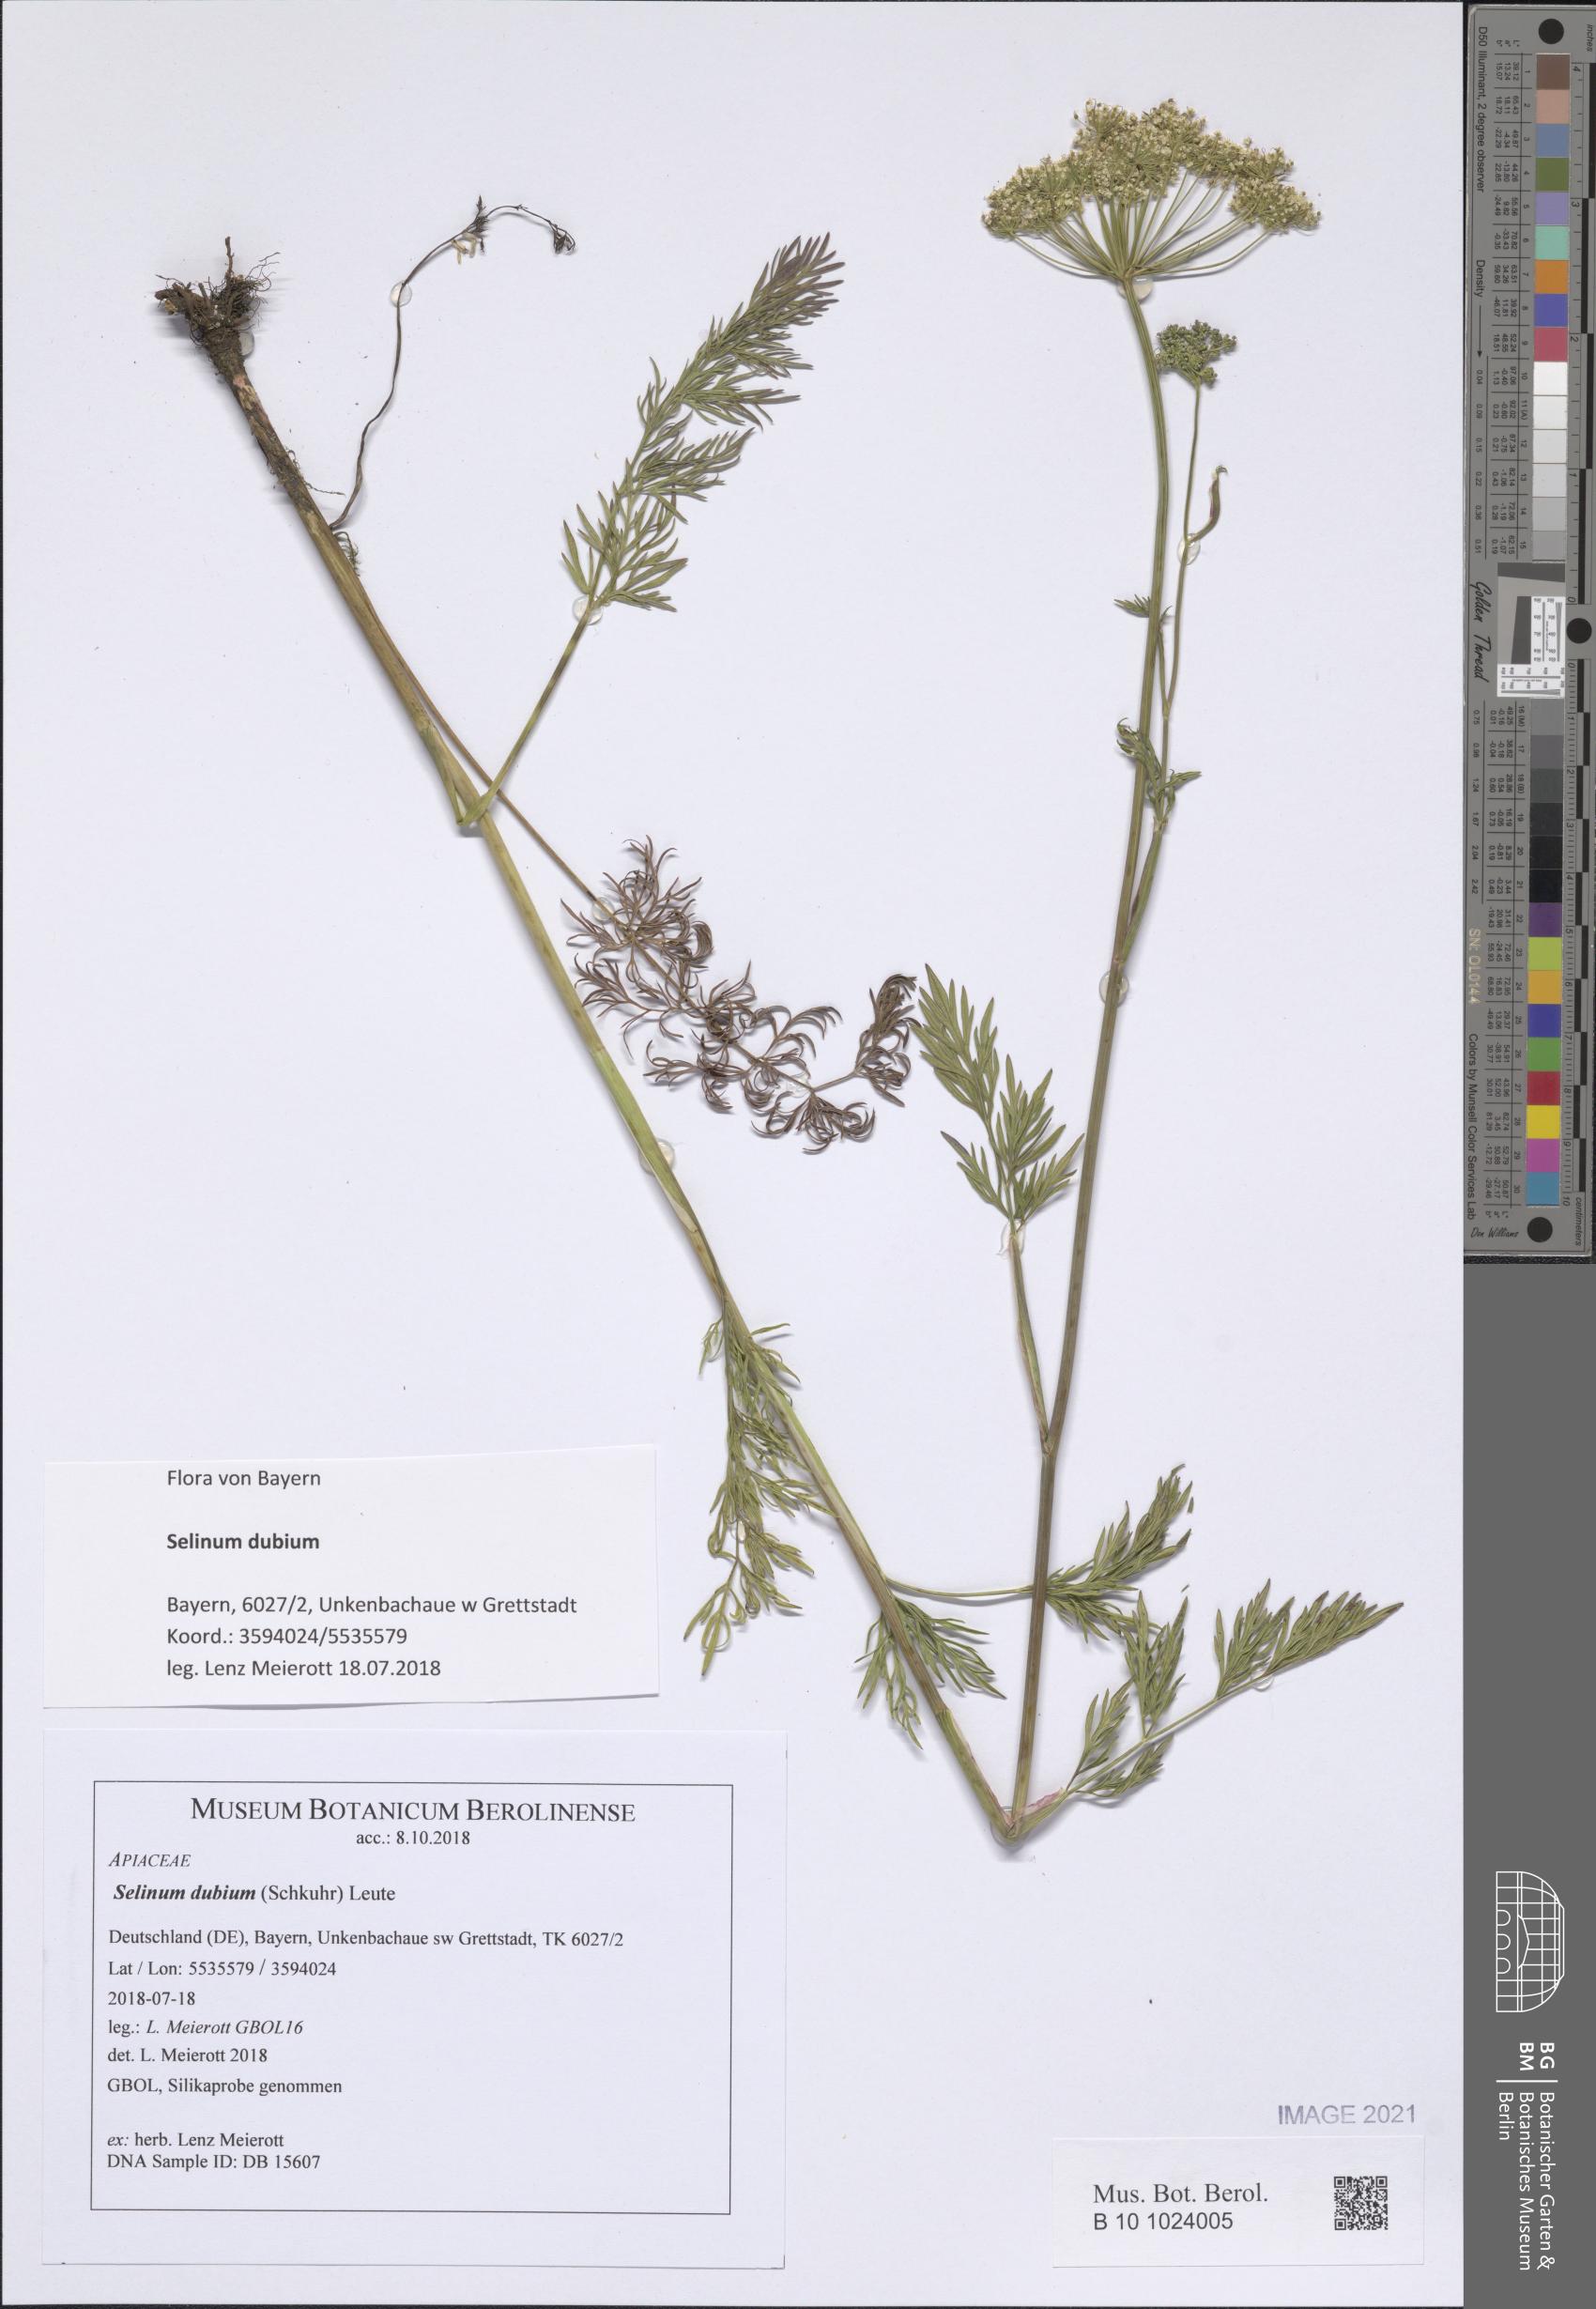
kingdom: Plantae
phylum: Tracheophyta
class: Magnoliopsida
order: Apiales
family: Apiaceae
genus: Kadenia
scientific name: Kadenia dubia
